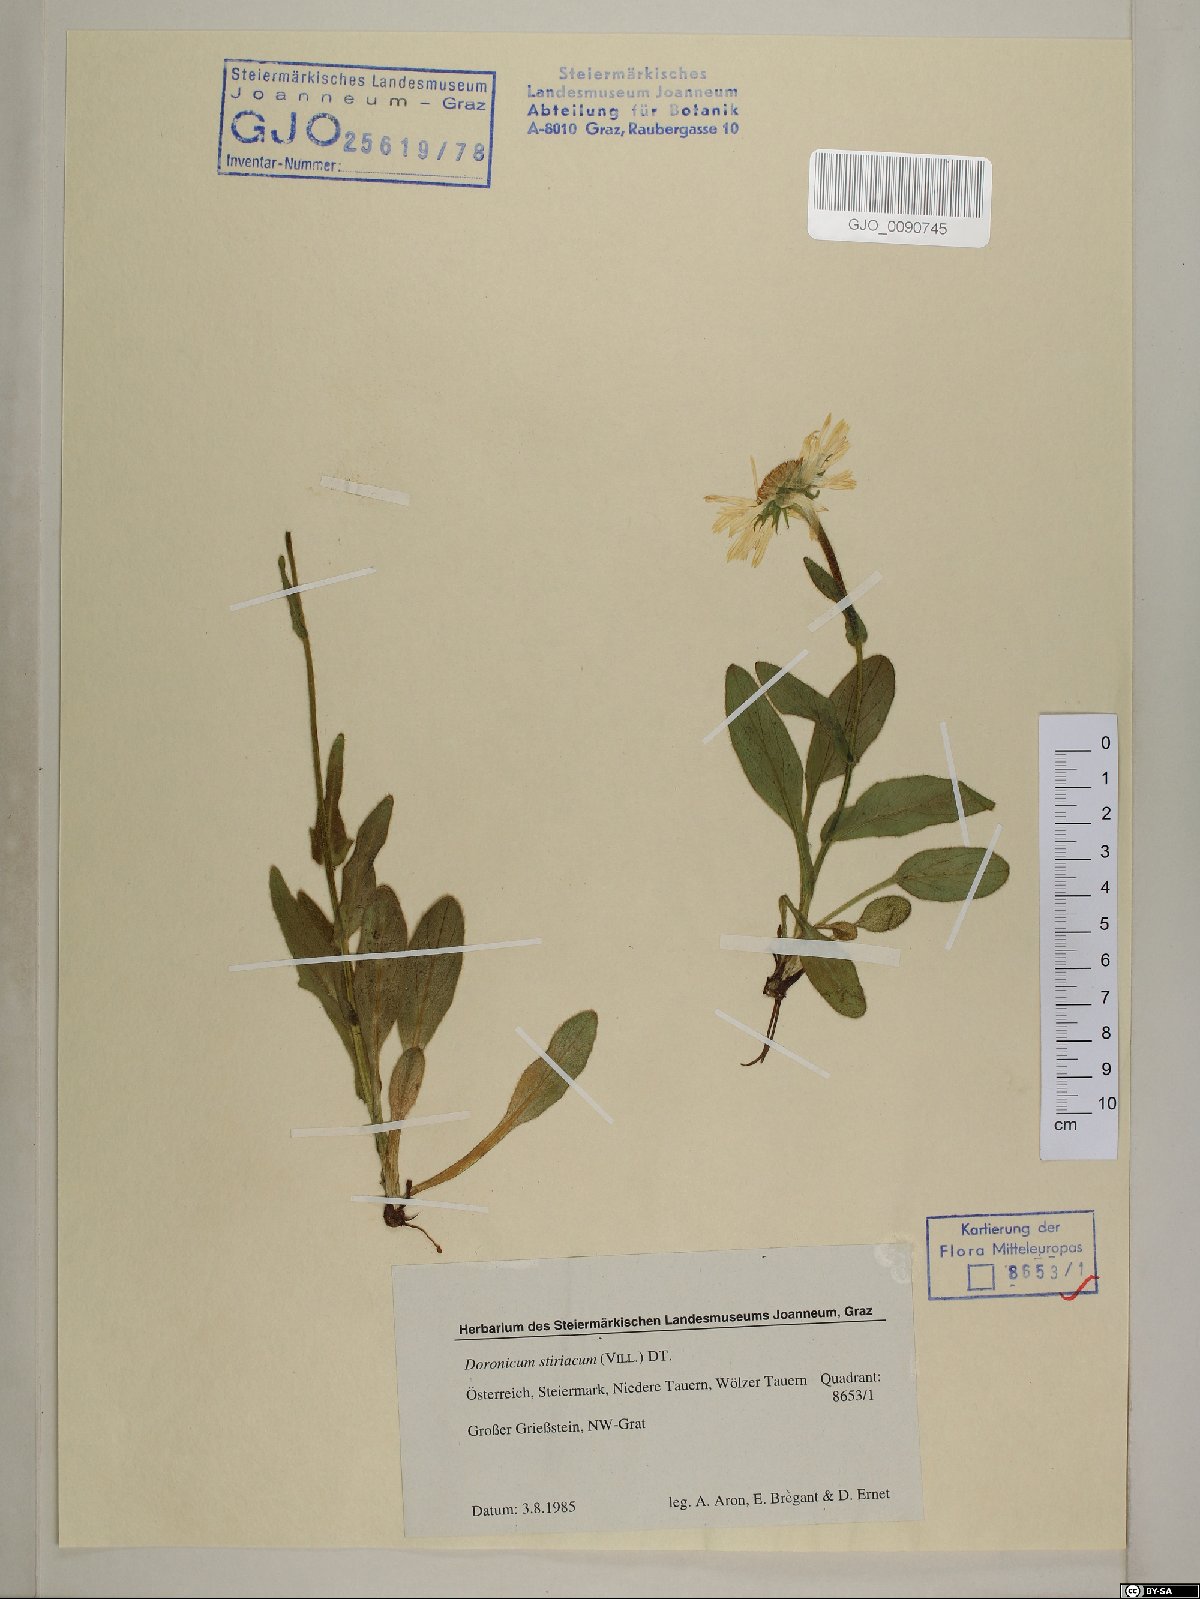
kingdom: Plantae
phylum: Tracheophyta
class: Magnoliopsida
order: Asterales
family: Asteraceae
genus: Doronicum
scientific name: Doronicum clusii
